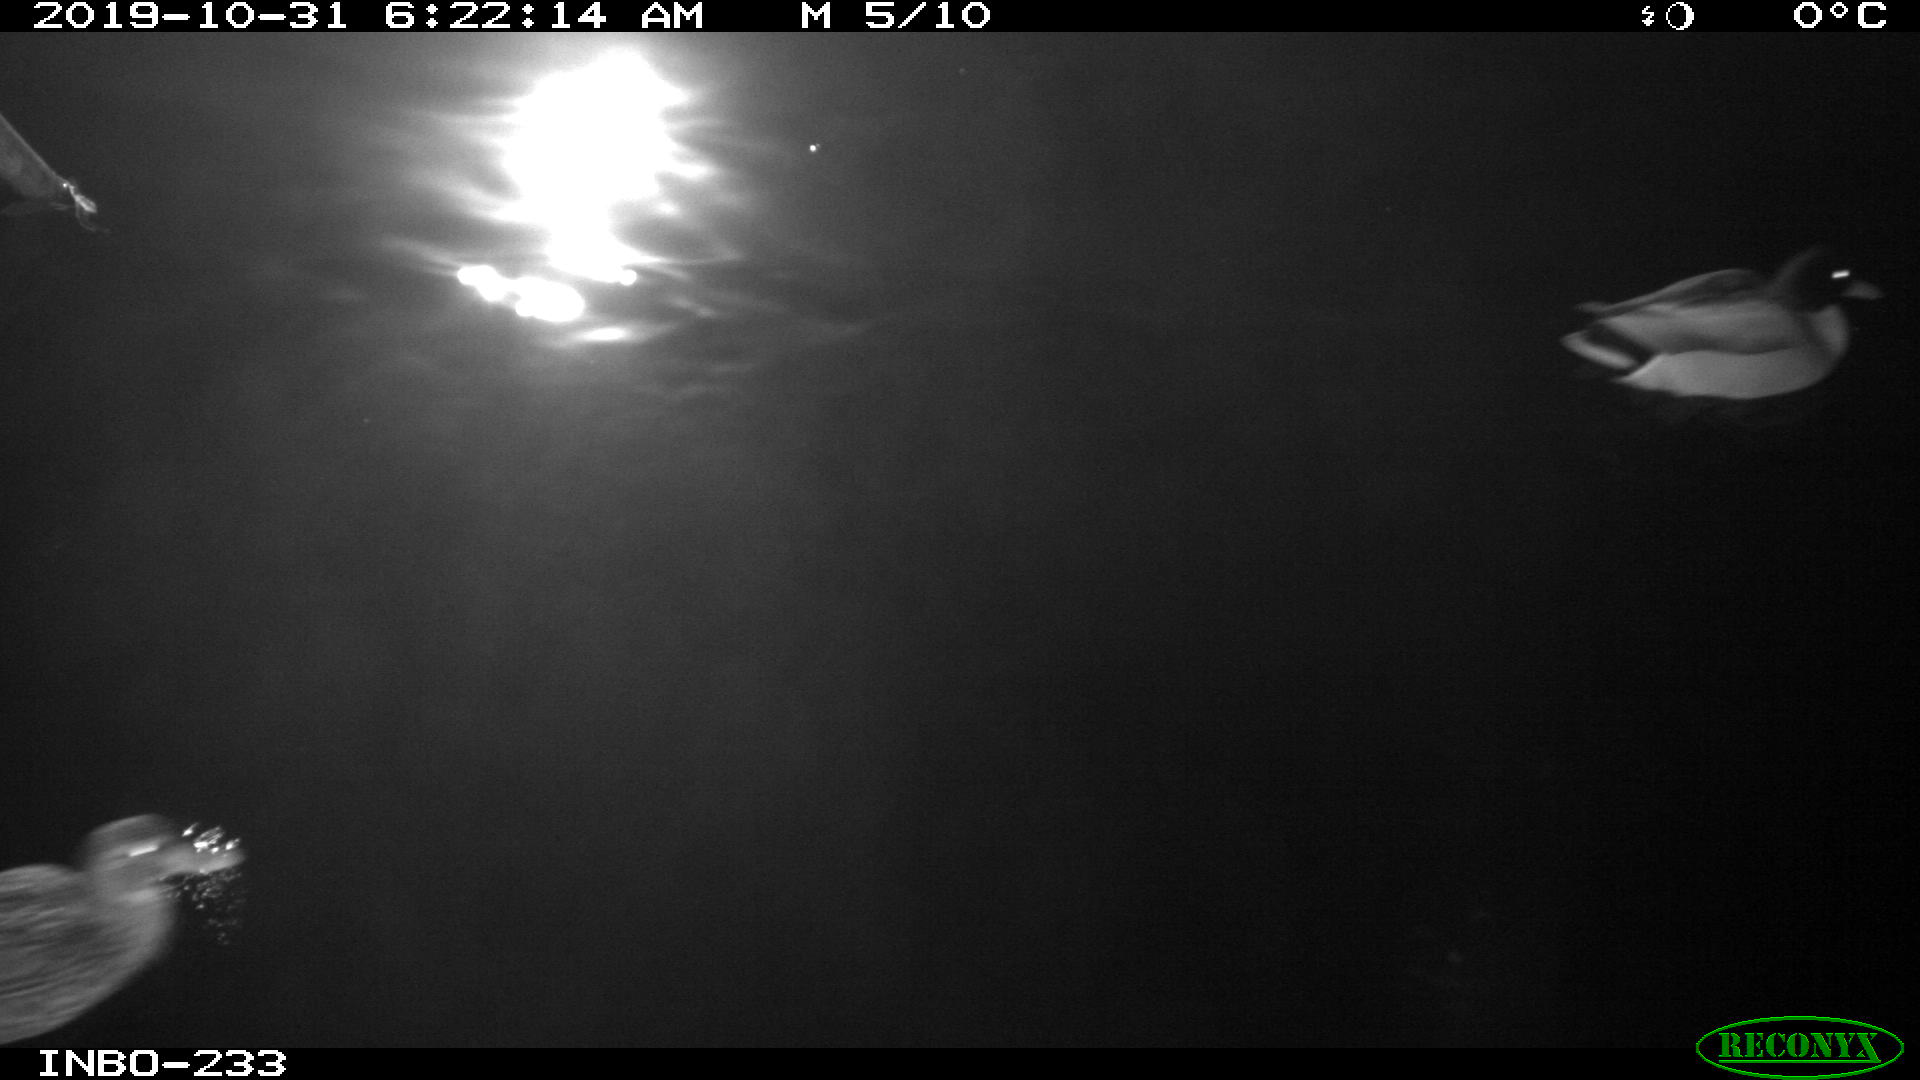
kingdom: Animalia
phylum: Chordata
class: Aves
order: Anseriformes
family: Anatidae
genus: Anas
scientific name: Anas platyrhynchos
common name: Mallard
